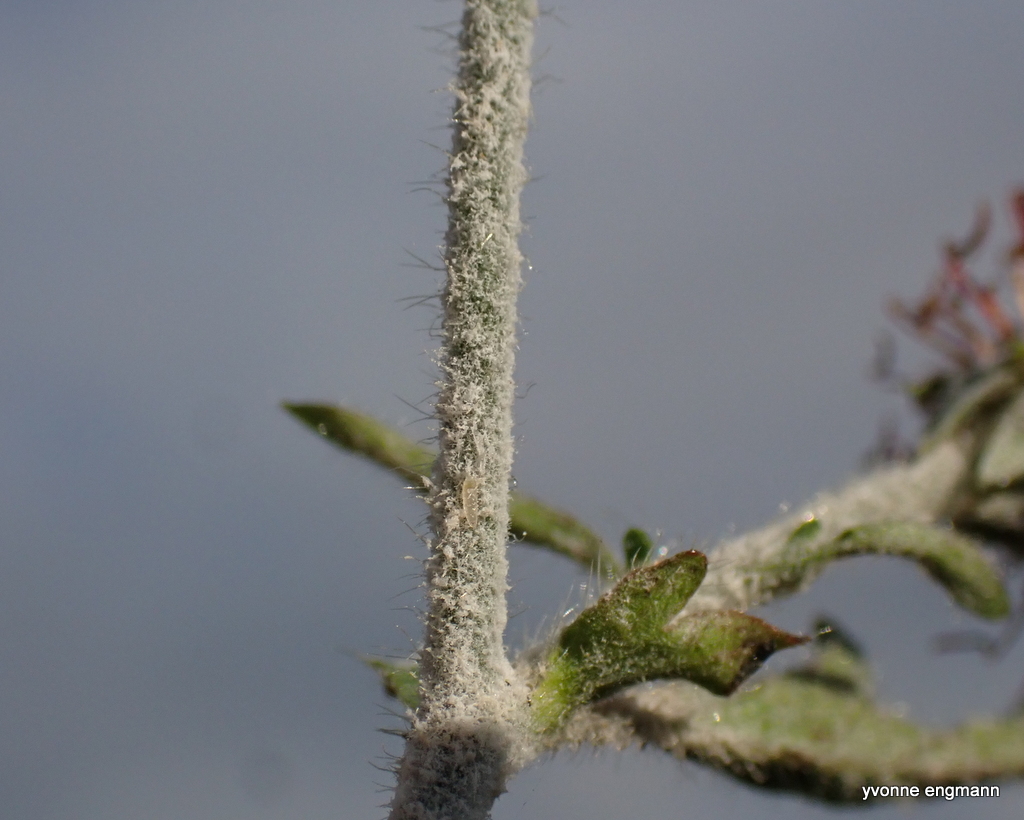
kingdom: Fungi
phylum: Ascomycota
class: Leotiomycetes
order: Helotiales
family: Erysiphaceae
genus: Podosphaera
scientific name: Podosphaera aphanis
